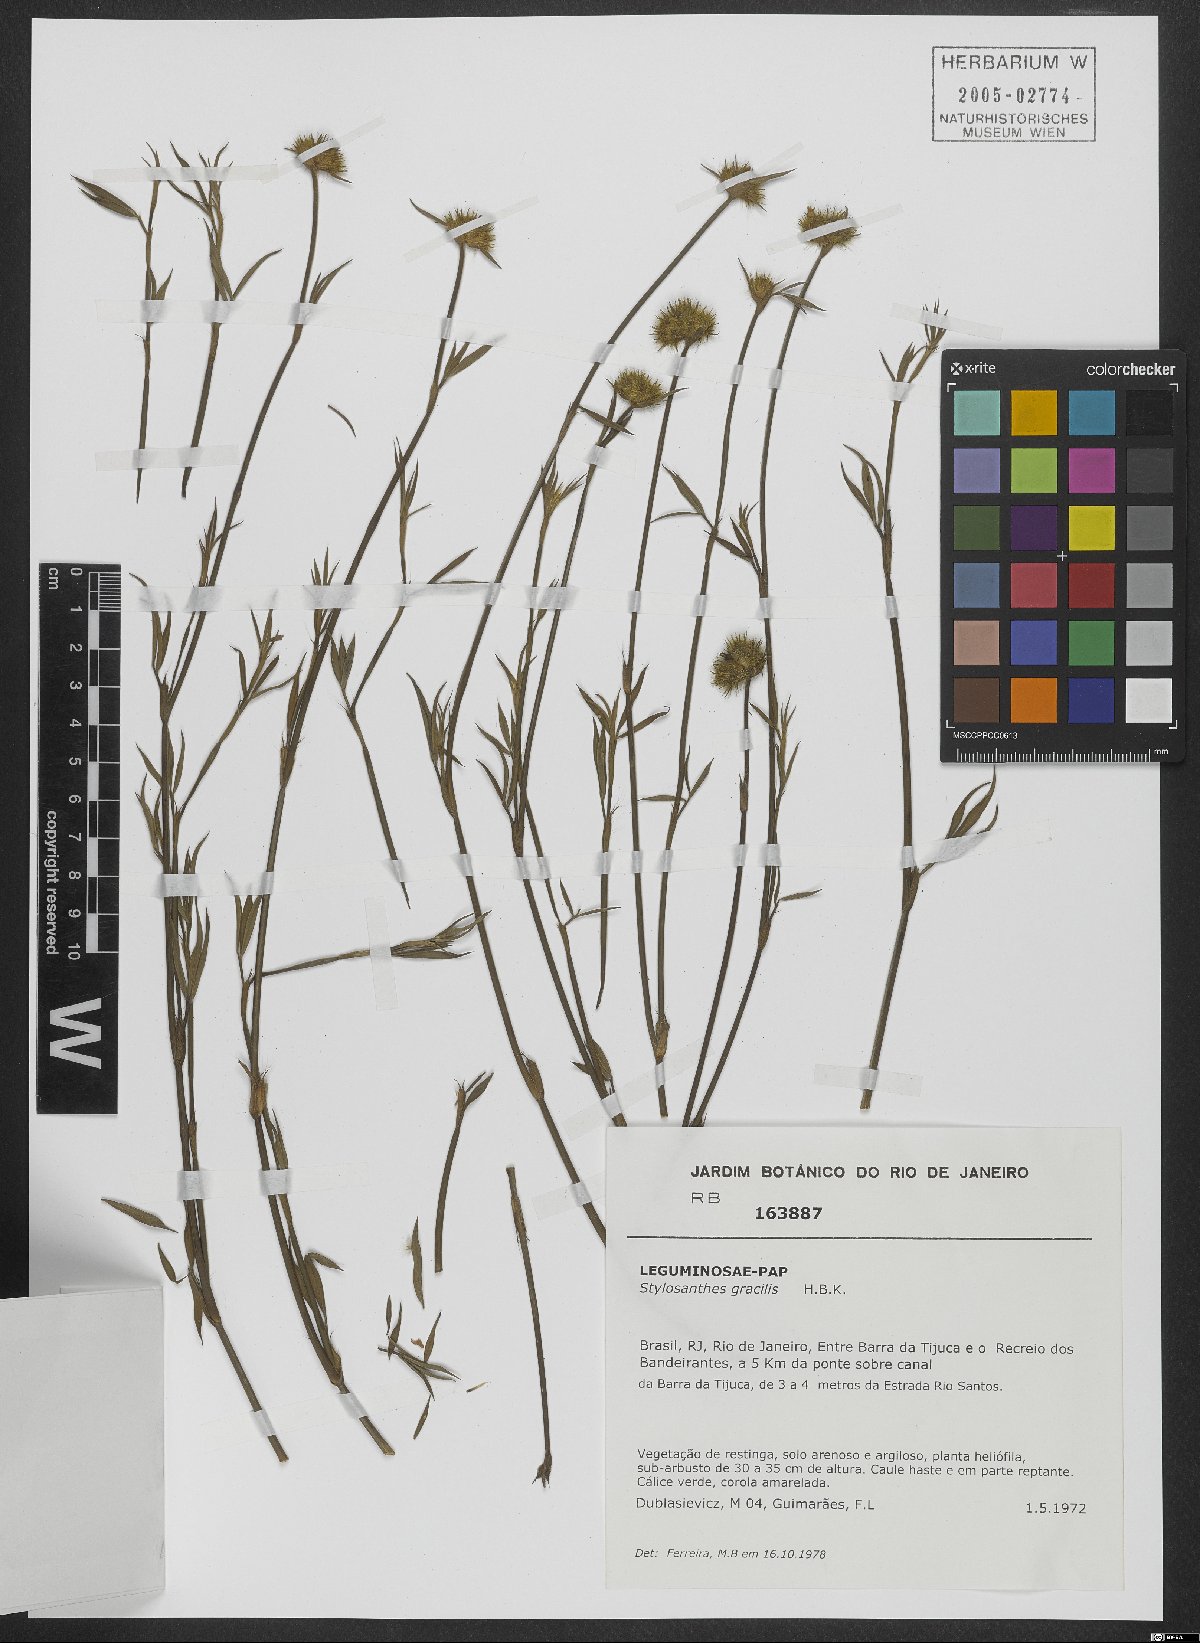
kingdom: Plantae
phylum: Tracheophyta
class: Magnoliopsida
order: Fabales
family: Fabaceae
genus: Stylosanthes
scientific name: Stylosanthes guianensis
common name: Pencil flower
